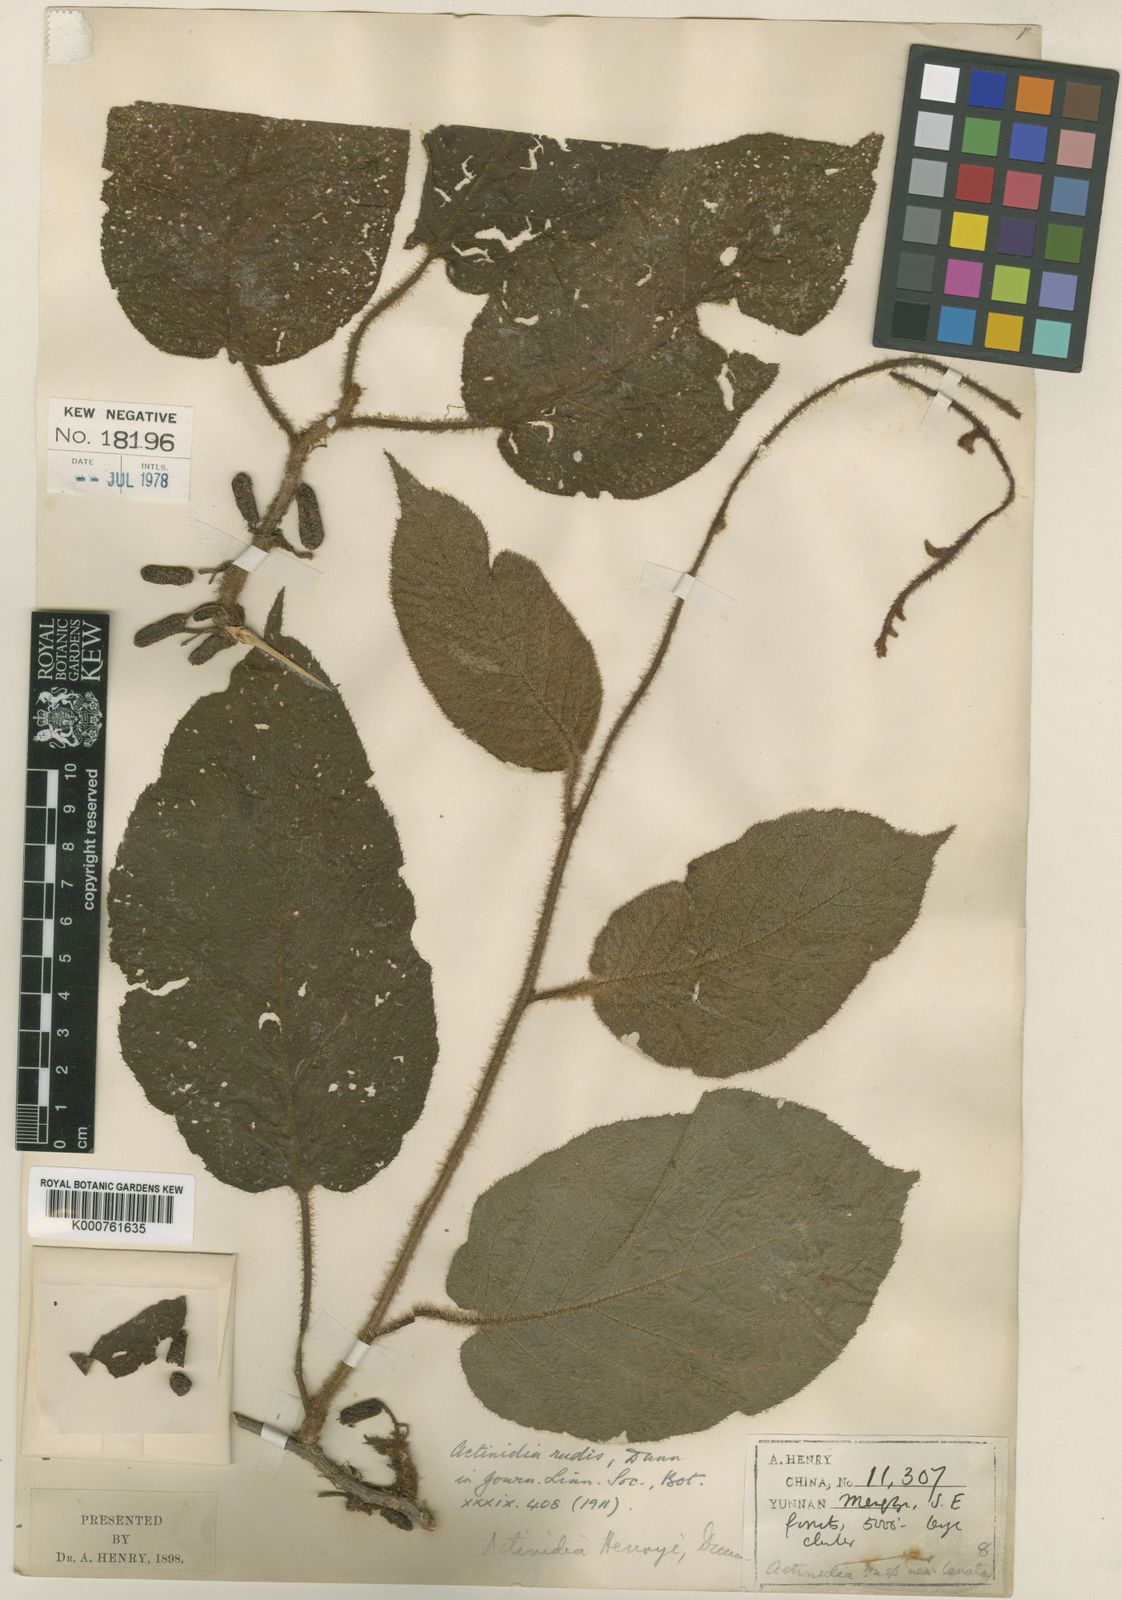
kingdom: Plantae
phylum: Tracheophyta
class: Magnoliopsida
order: Ericales
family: Actinidiaceae
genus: Actinidia
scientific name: Actinidia rudis
